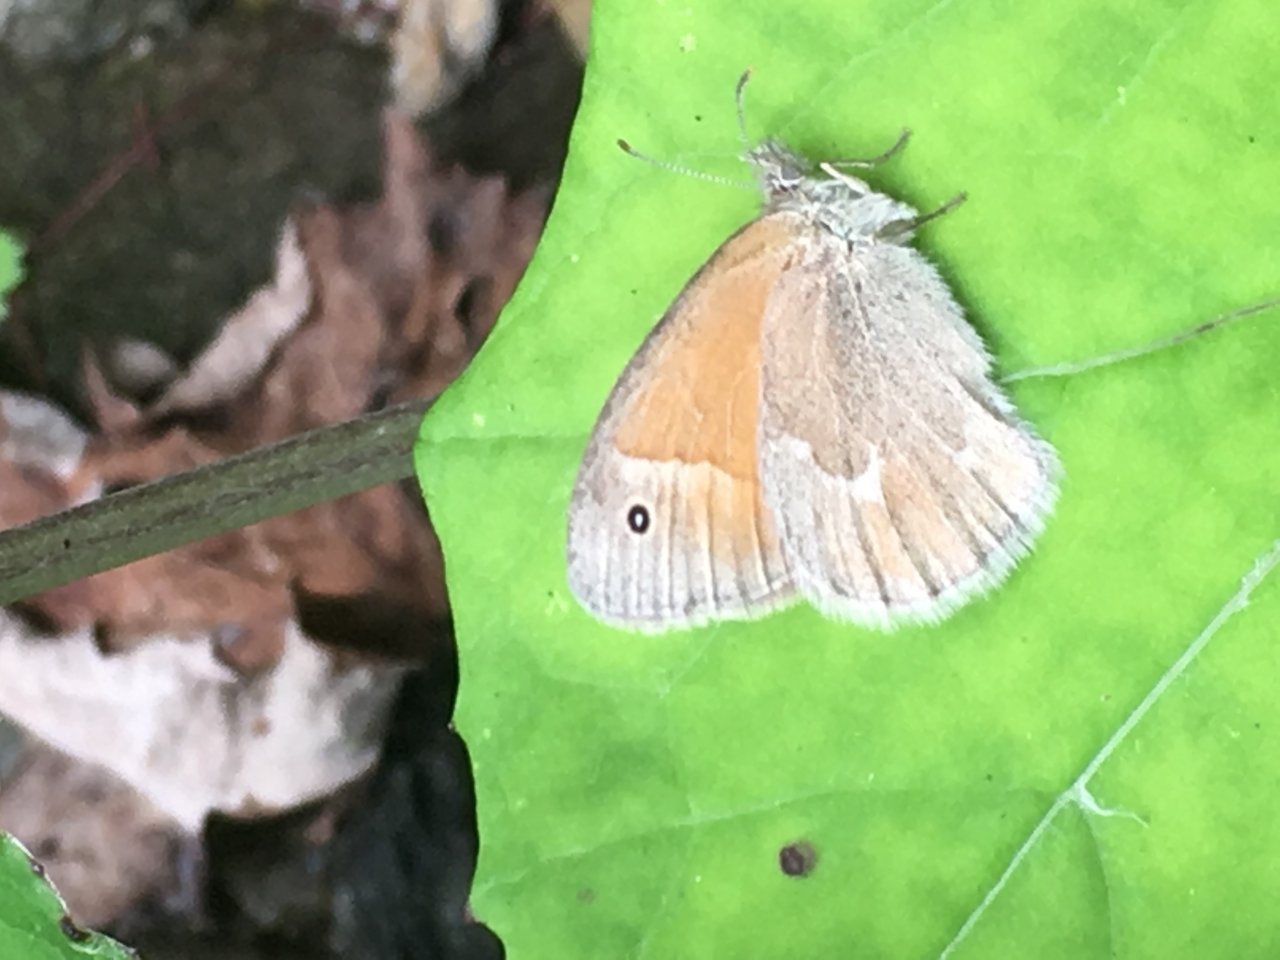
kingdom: Animalia
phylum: Arthropoda
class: Insecta
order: Lepidoptera
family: Nymphalidae
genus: Coenonympha
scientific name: Coenonympha tullia
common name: Large Heath
